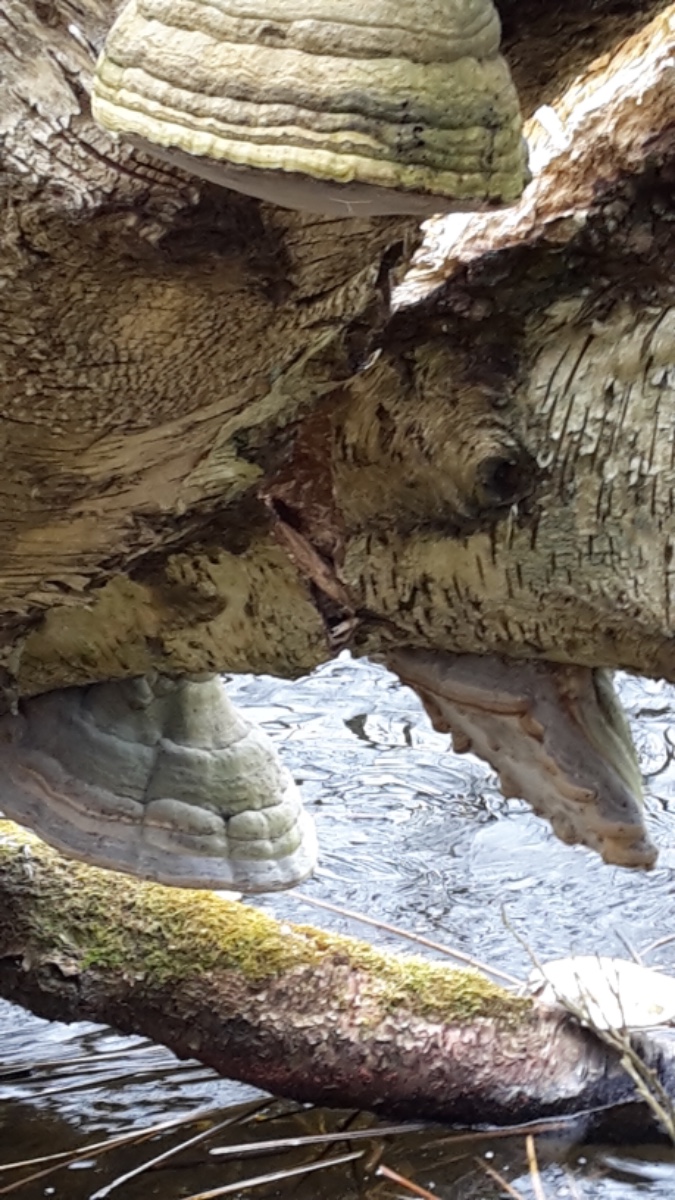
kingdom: Fungi
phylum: Basidiomycota
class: Agaricomycetes
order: Polyporales
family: Polyporaceae
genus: Fomes
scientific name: Fomes fomentarius
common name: tøndersvamp
